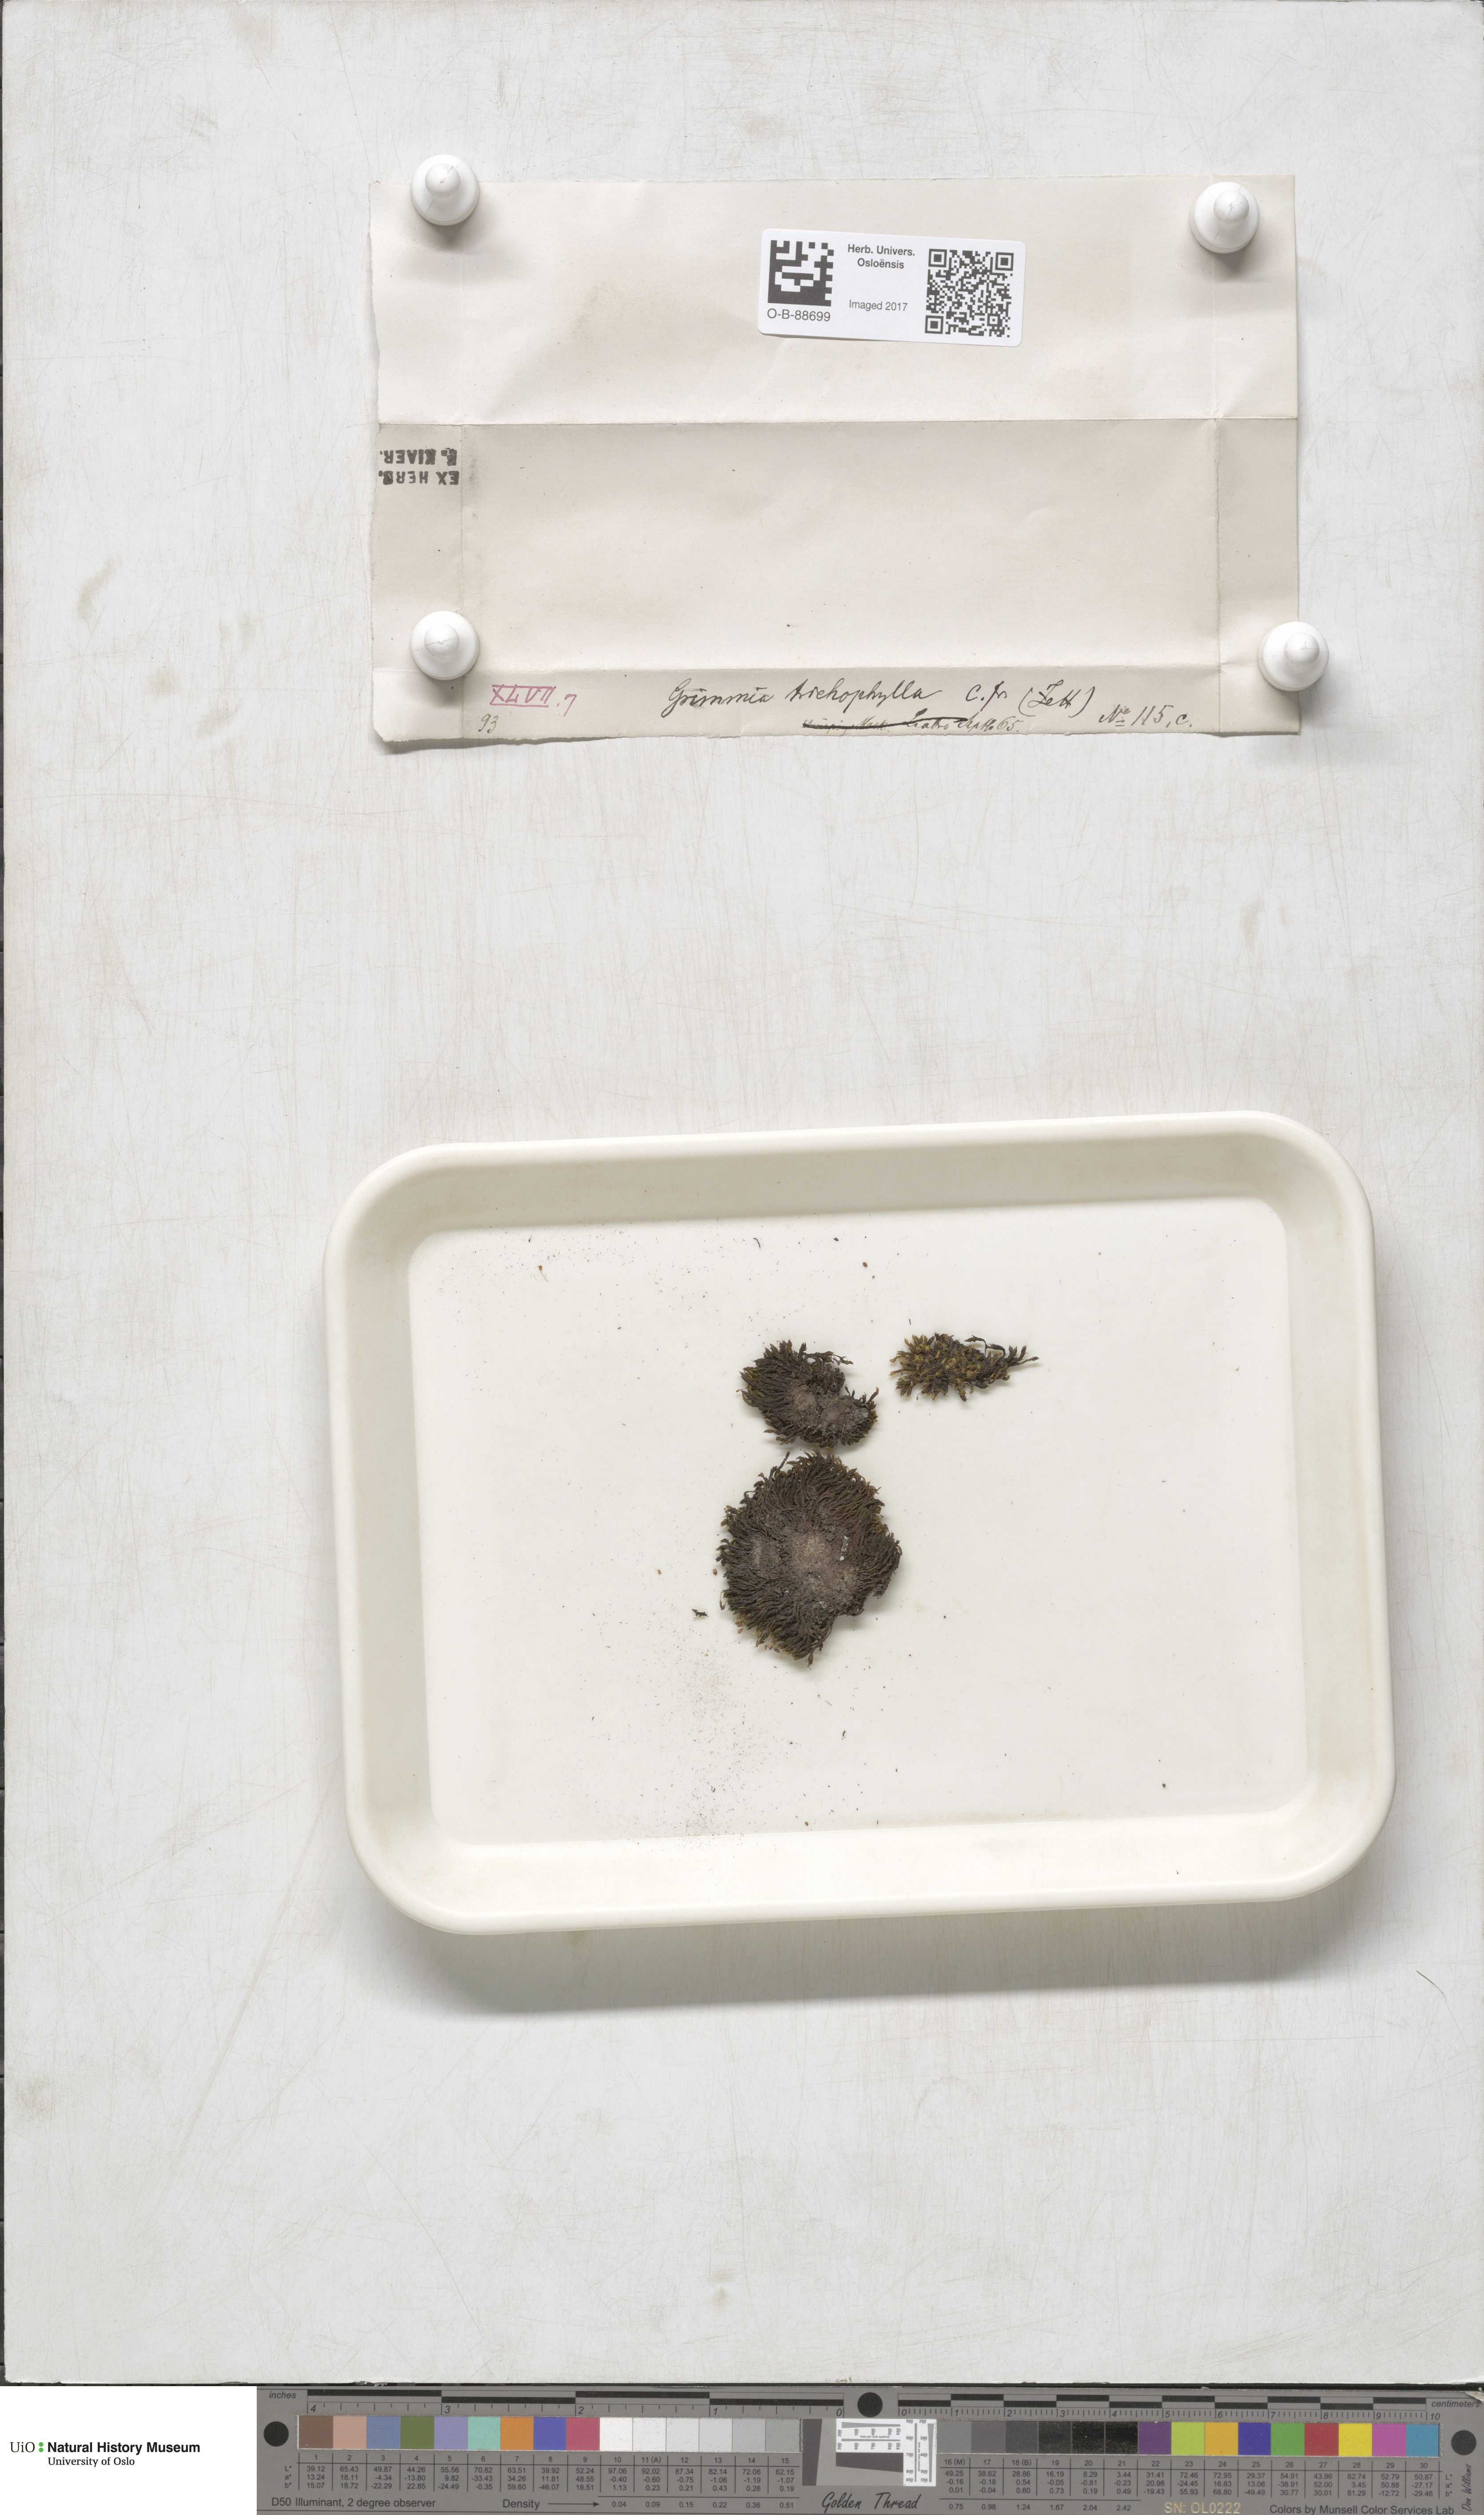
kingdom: Plantae
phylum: Bryophyta
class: Bryopsida
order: Grimmiales
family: Grimmiaceae
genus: Grimmia
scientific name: Grimmia trichophylla
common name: Hair-pointed grimmia
